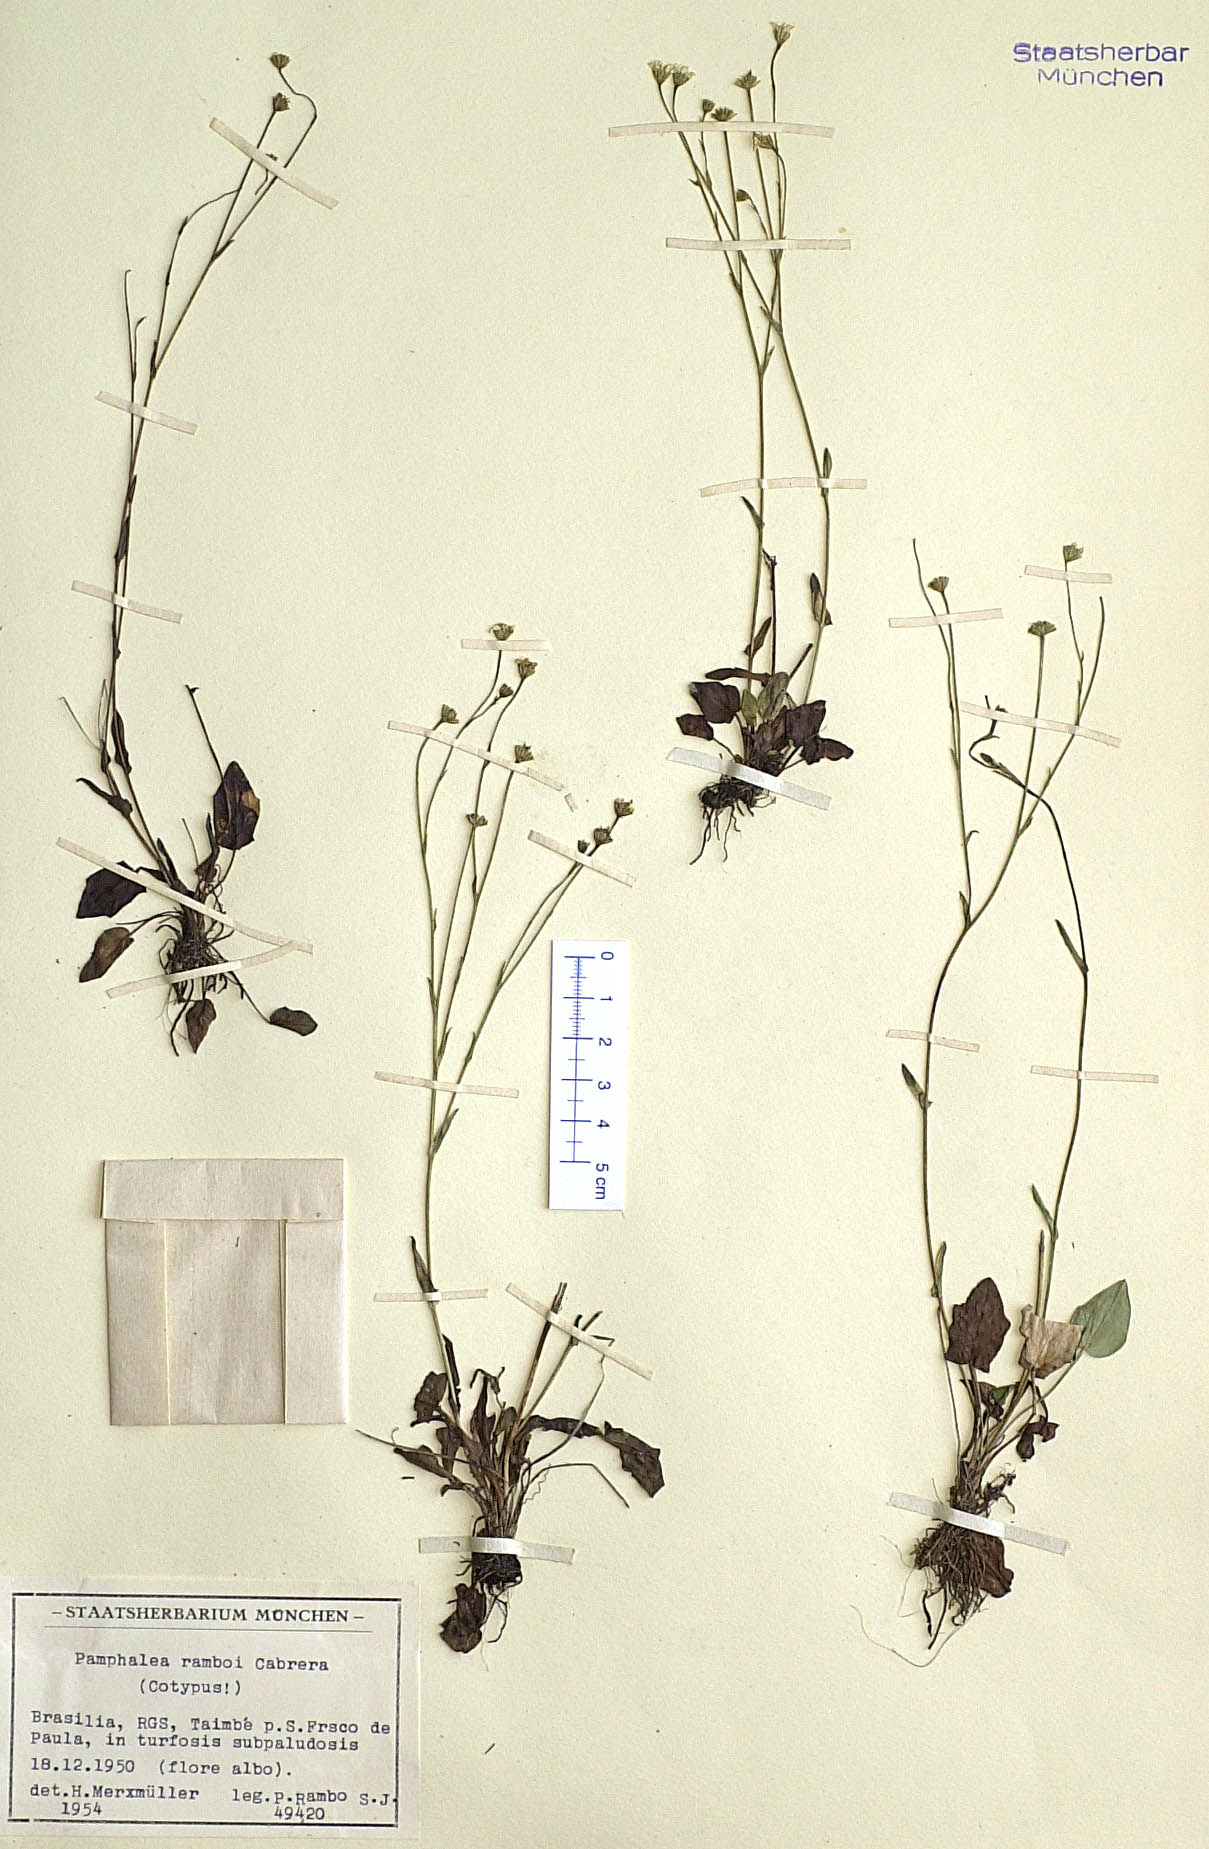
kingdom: Plantae
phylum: Tracheophyta
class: Magnoliopsida
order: Asterales
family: Asteraceae
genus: Pamphalea
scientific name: Pamphalea ramboi
